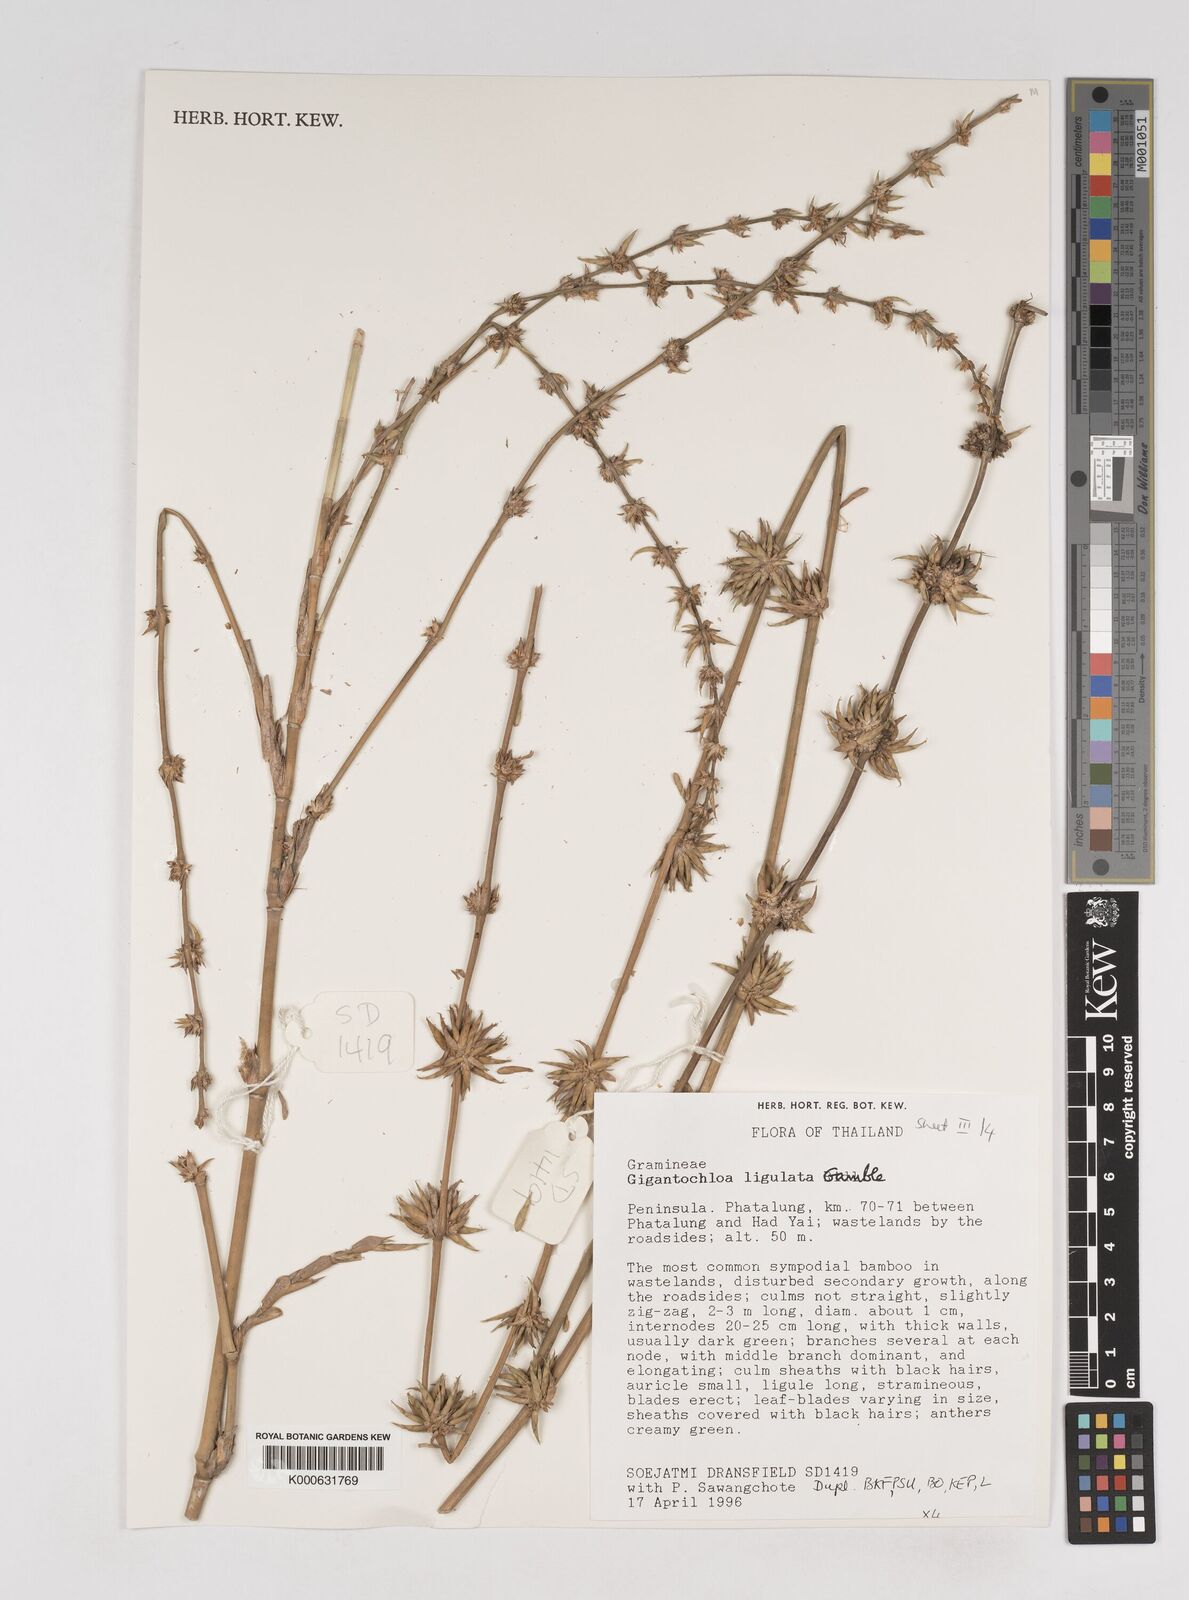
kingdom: Plantae
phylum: Tracheophyta
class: Liliopsida
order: Poales
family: Poaceae
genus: Gigantochloa
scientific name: Gigantochloa ligulata
